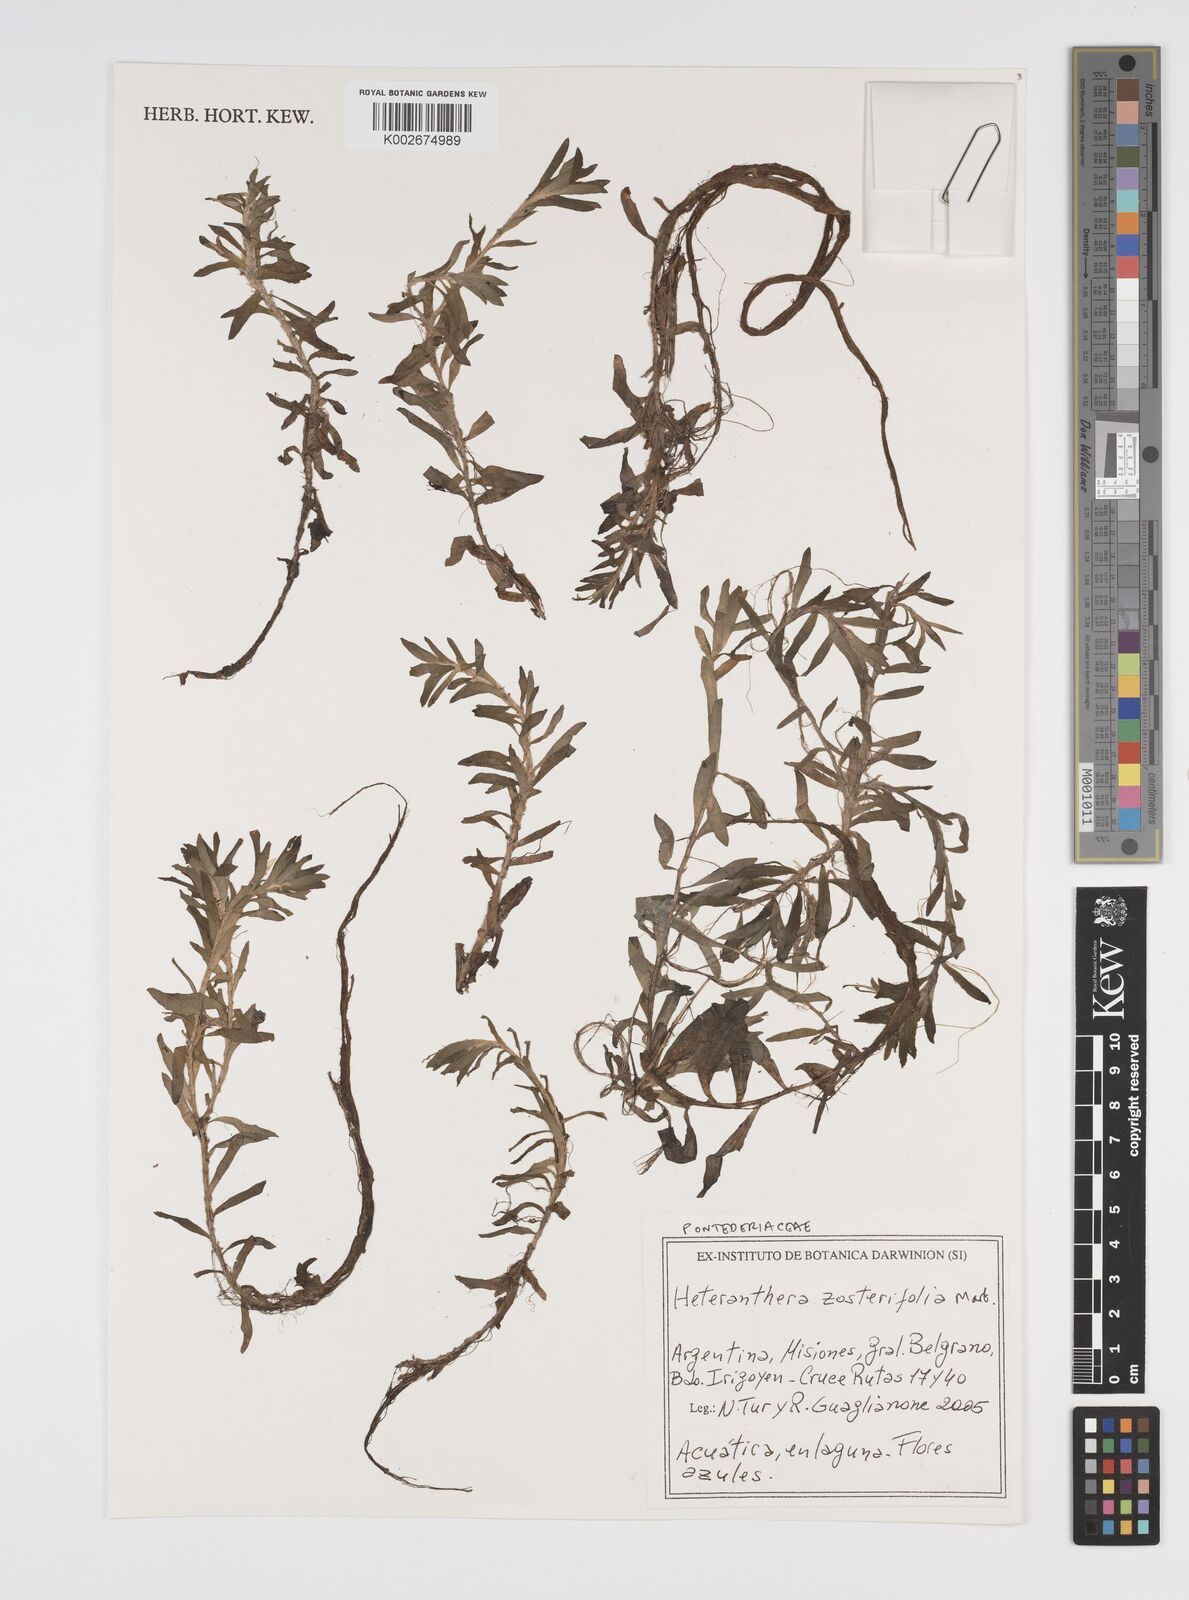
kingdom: Plantae
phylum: Tracheophyta
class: Liliopsida
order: Commelinales
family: Pontederiaceae
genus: Heteranthera
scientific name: Heteranthera zosterifolia
